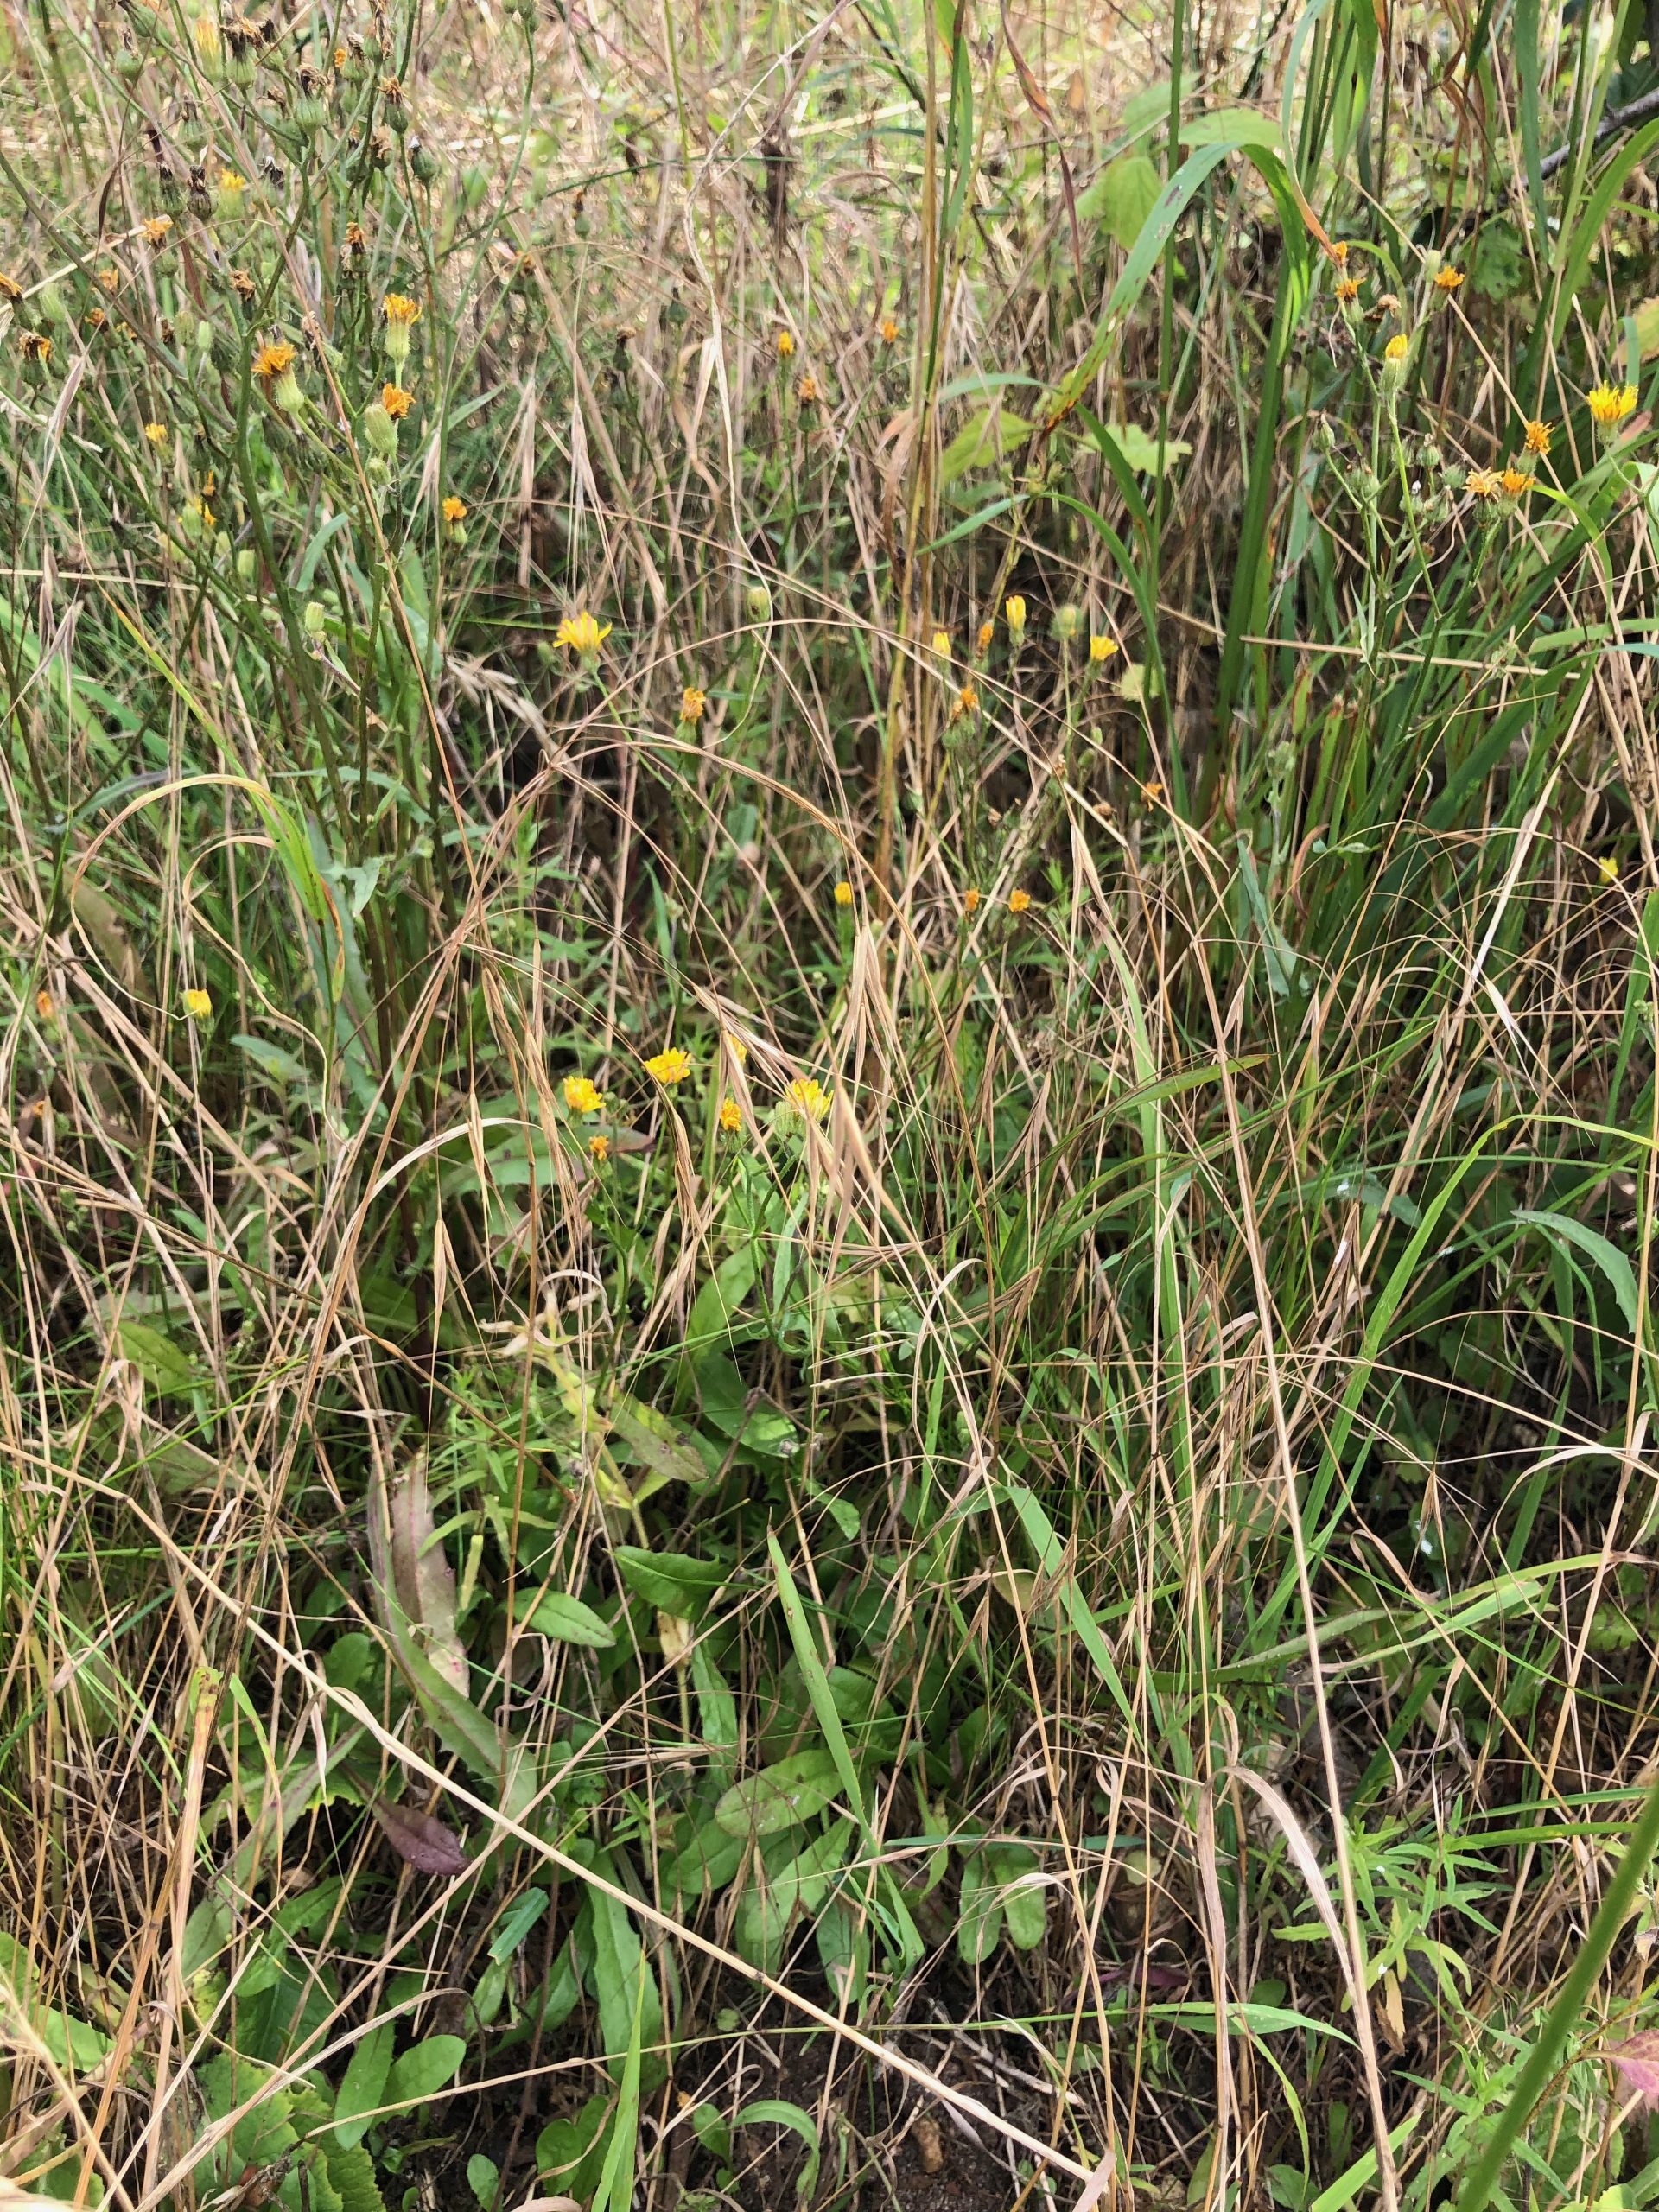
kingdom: Plantae
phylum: Tracheophyta
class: Liliopsida
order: Poales
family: Poaceae
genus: Bromus
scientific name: Bromus sterilis
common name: Gold hejre
